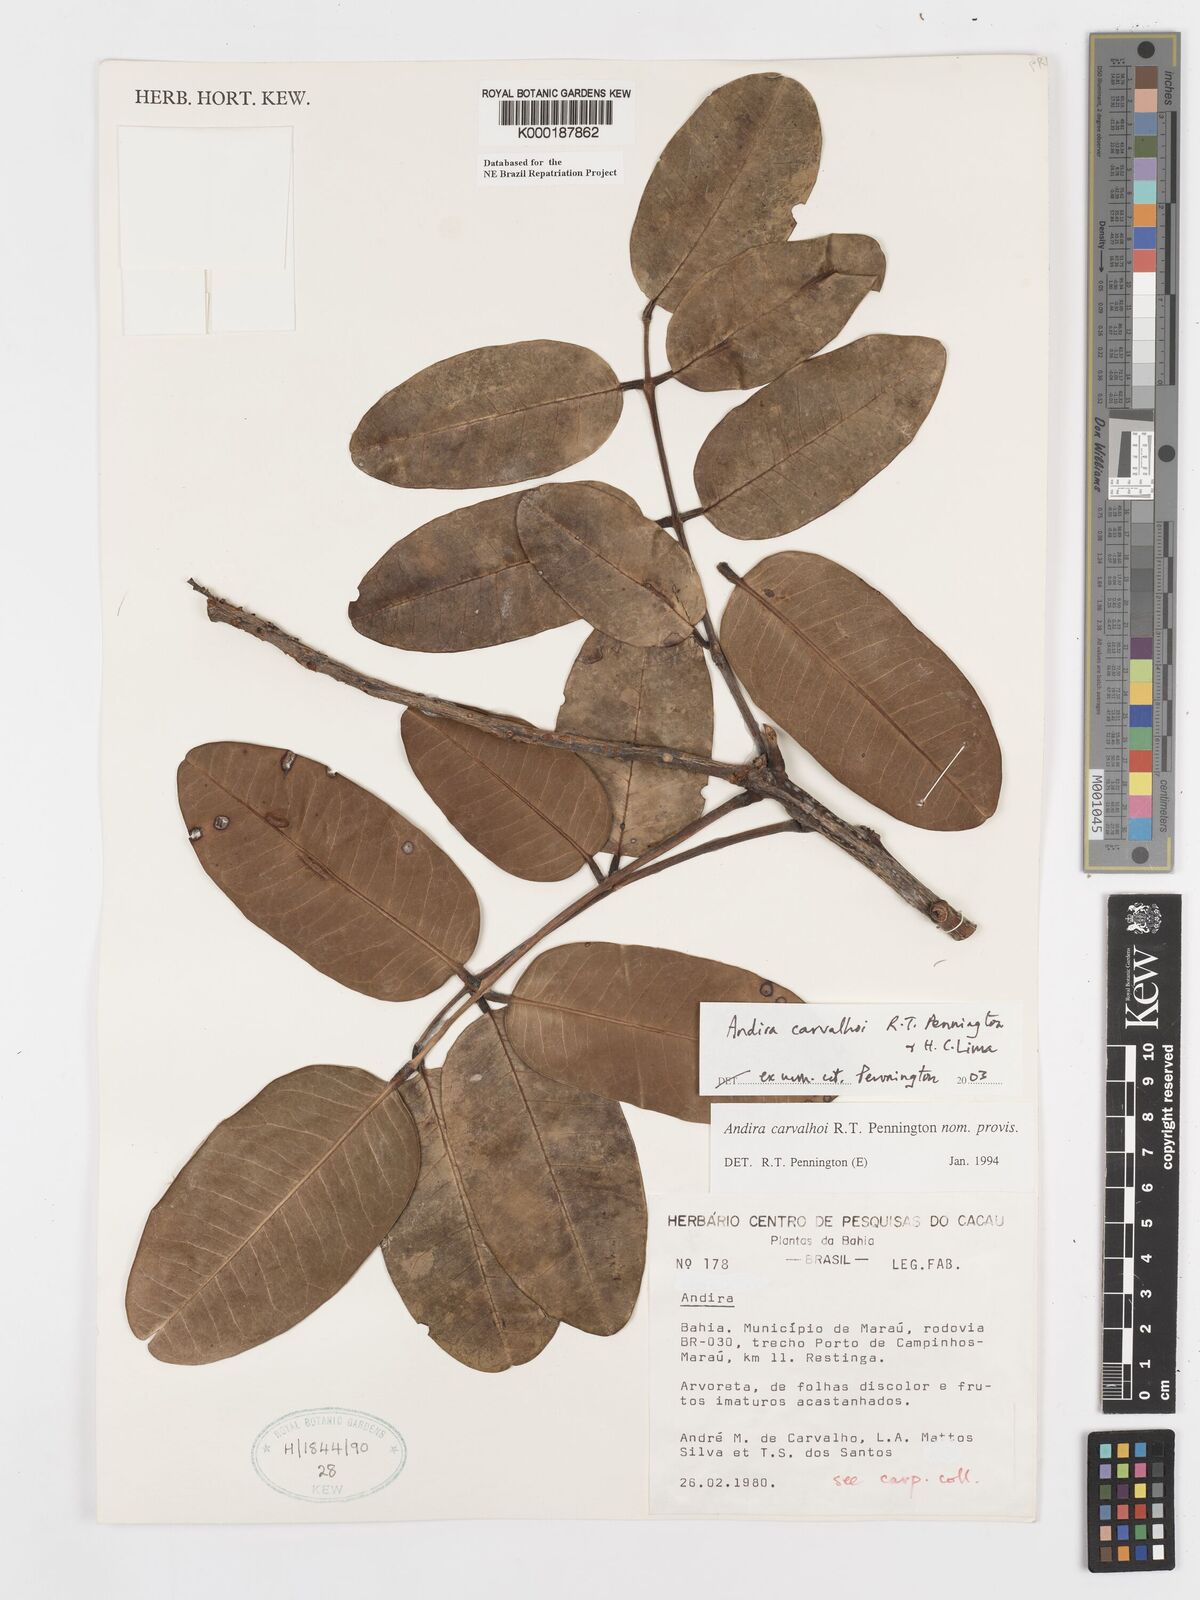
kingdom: Plantae
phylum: Tracheophyta
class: Magnoliopsida
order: Fabales
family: Fabaceae
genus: Andira
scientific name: Andira carvalhoi
